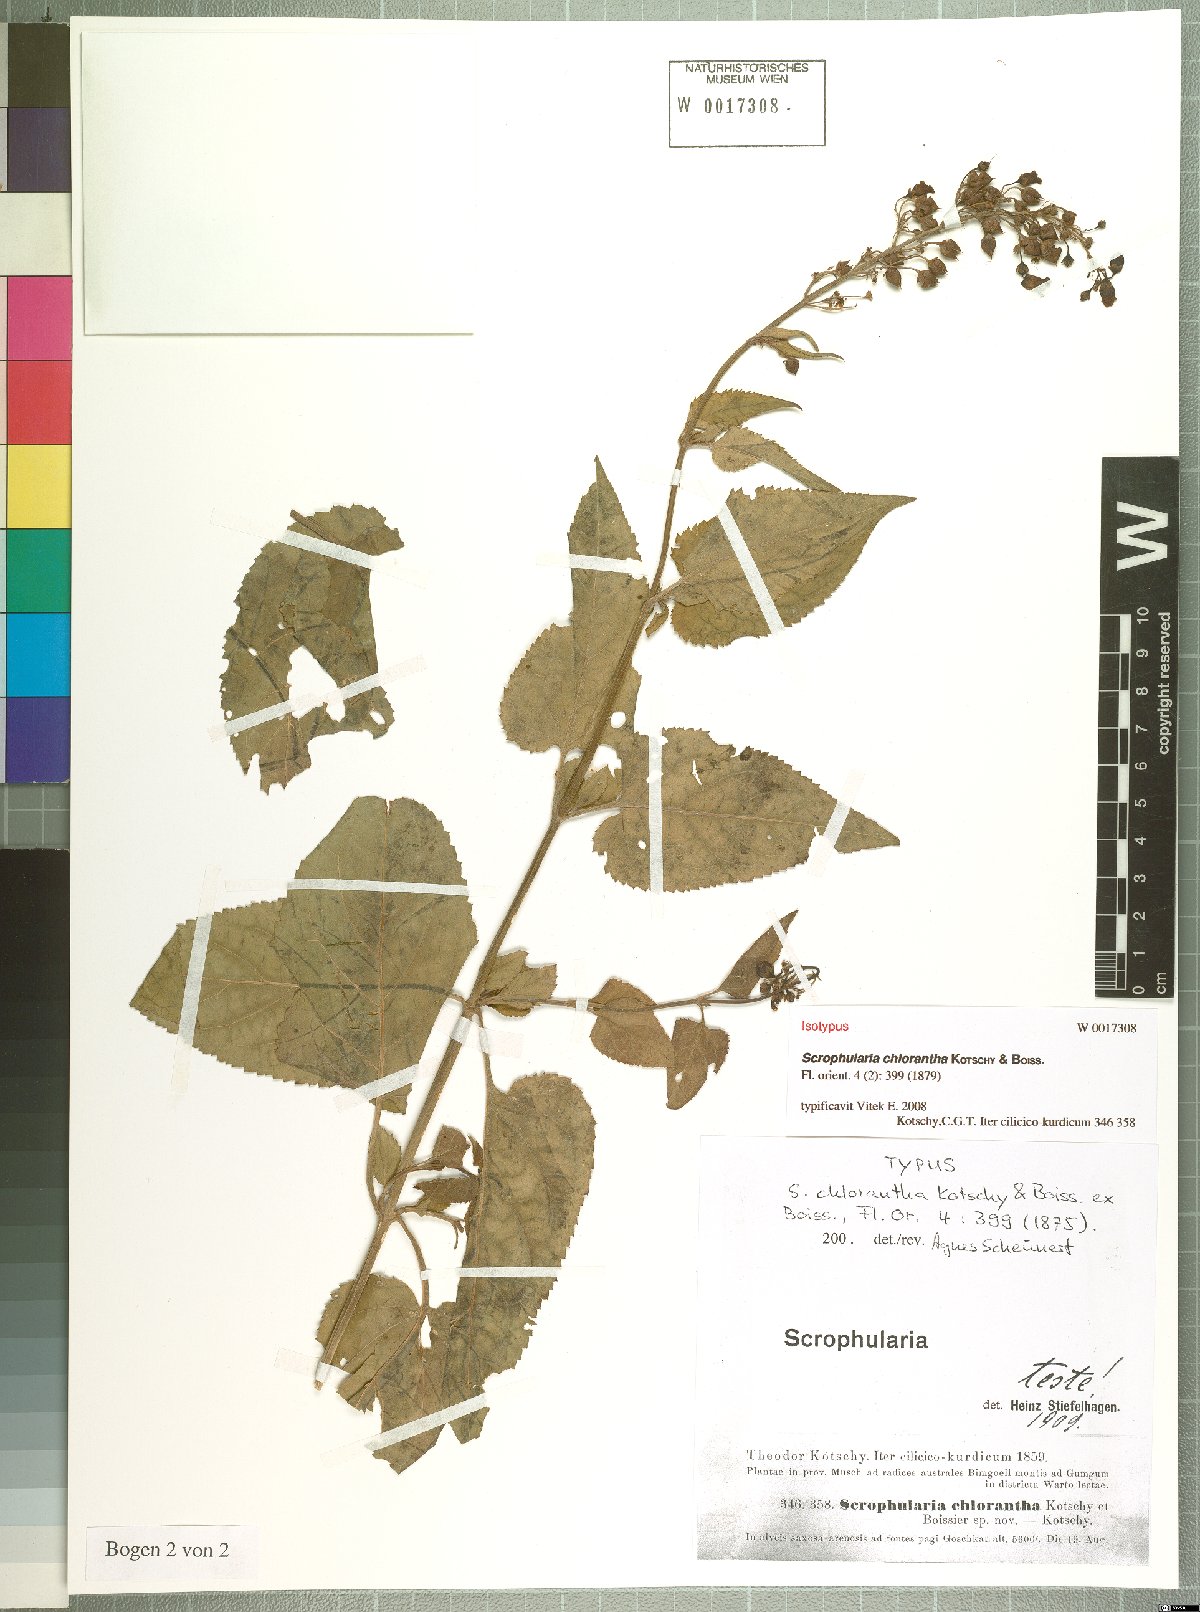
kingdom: Plantae
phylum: Tracheophyta
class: Magnoliopsida
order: Lamiales
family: Scrophulariaceae
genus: Scrophularia
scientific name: Scrophularia chlorantha
